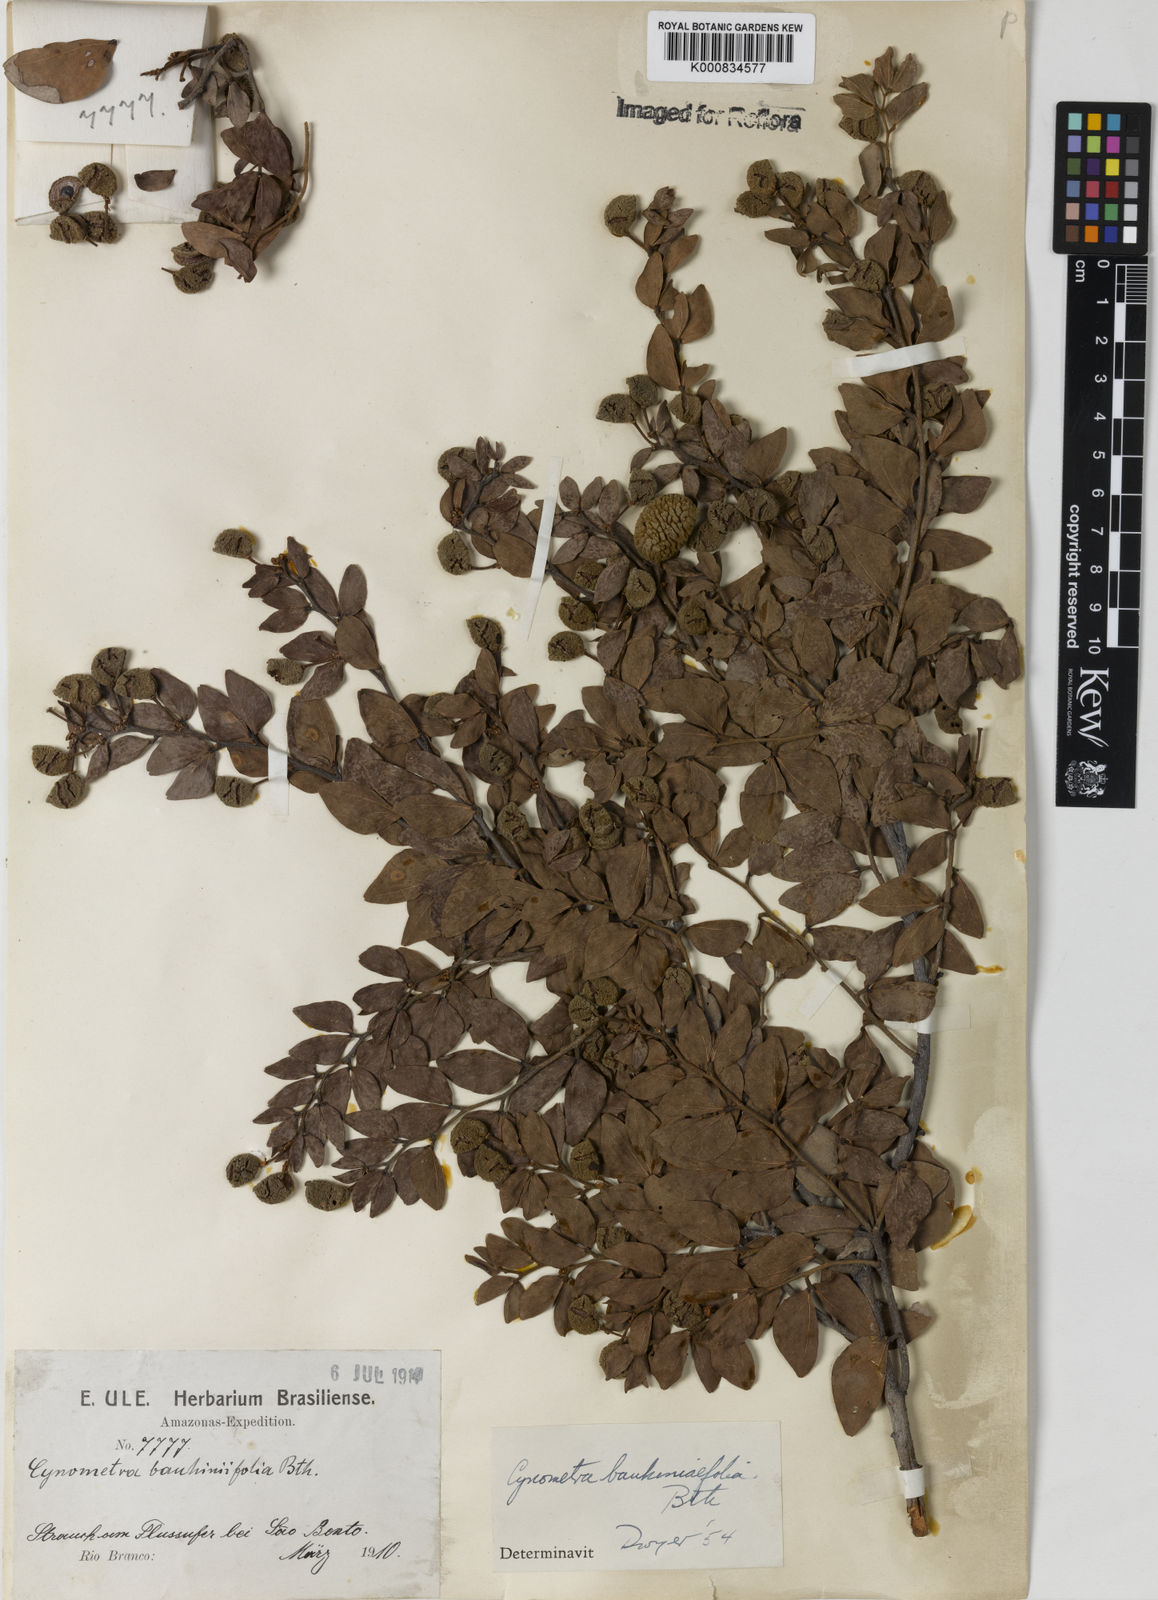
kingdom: Plantae
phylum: Tracheophyta
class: Magnoliopsida
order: Fabales
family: Fabaceae
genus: Cynometra
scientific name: Cynometra bauhiniifolia
